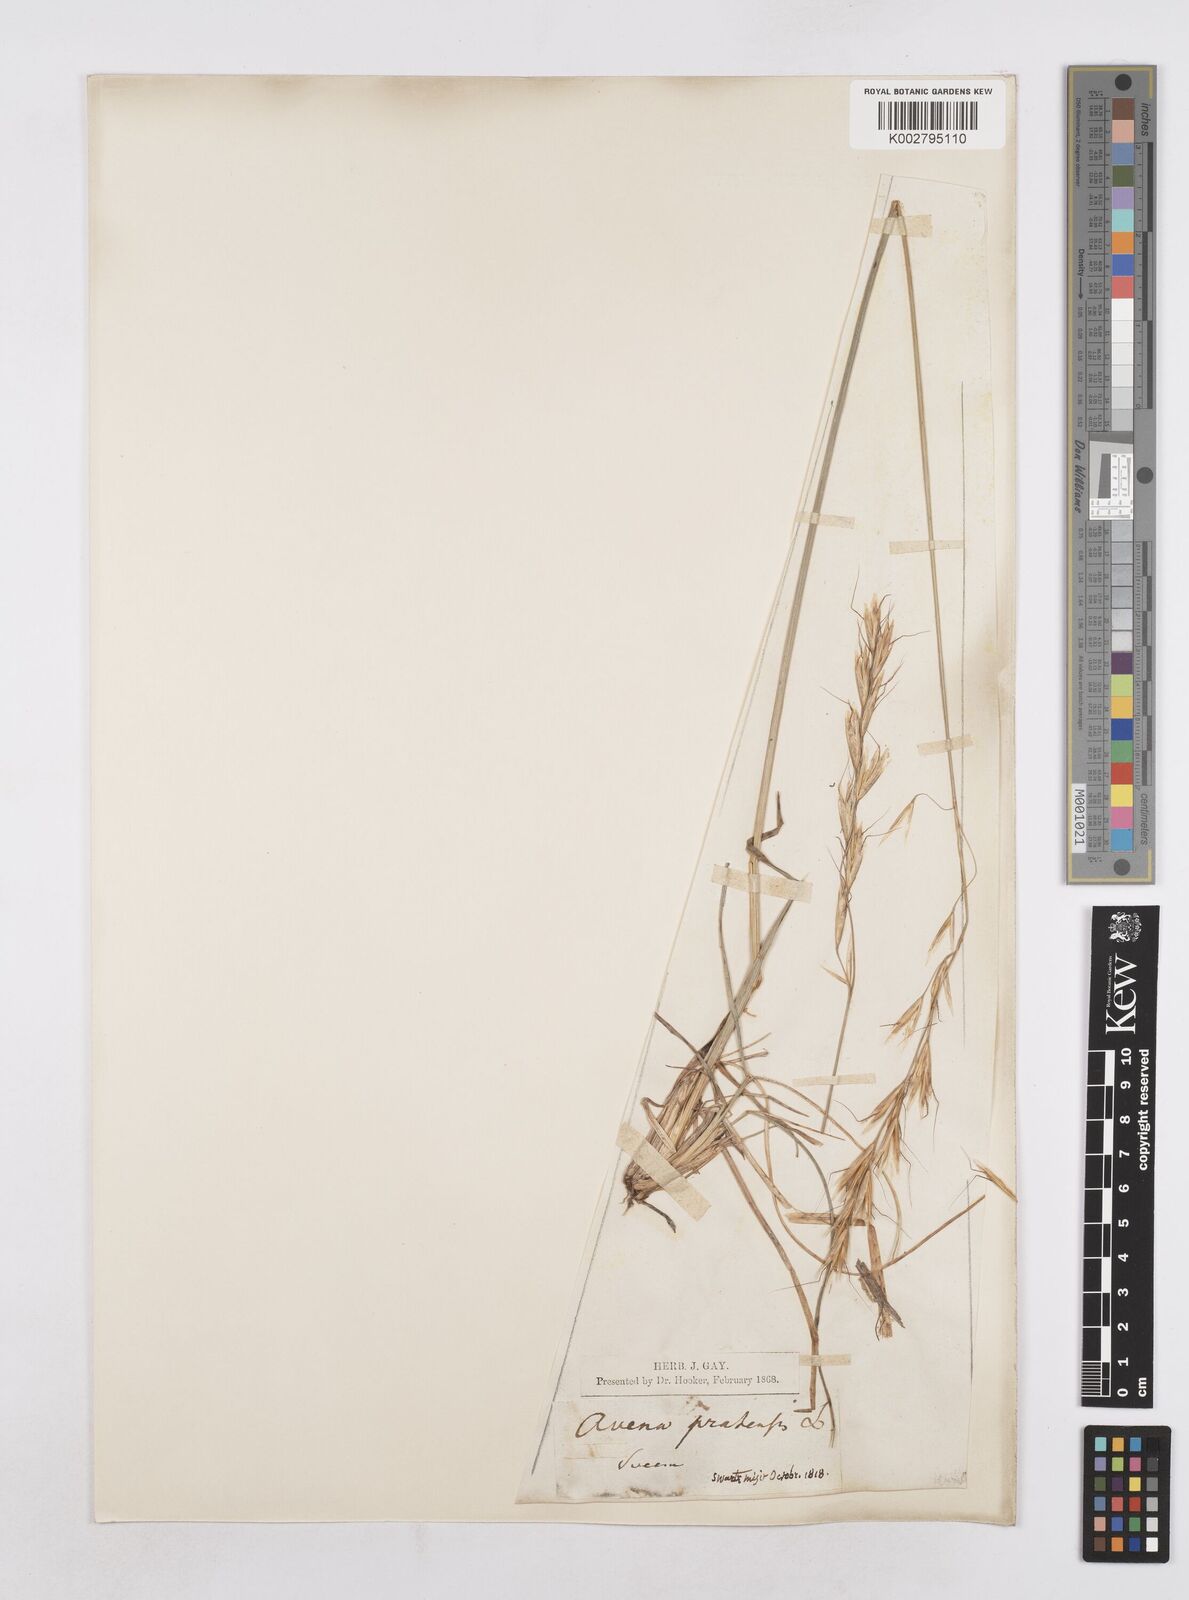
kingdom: Plantae
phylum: Tracheophyta
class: Liliopsida
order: Poales
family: Poaceae
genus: Helictochloa
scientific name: Helictochloa pratensis
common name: Meadow oat grass
